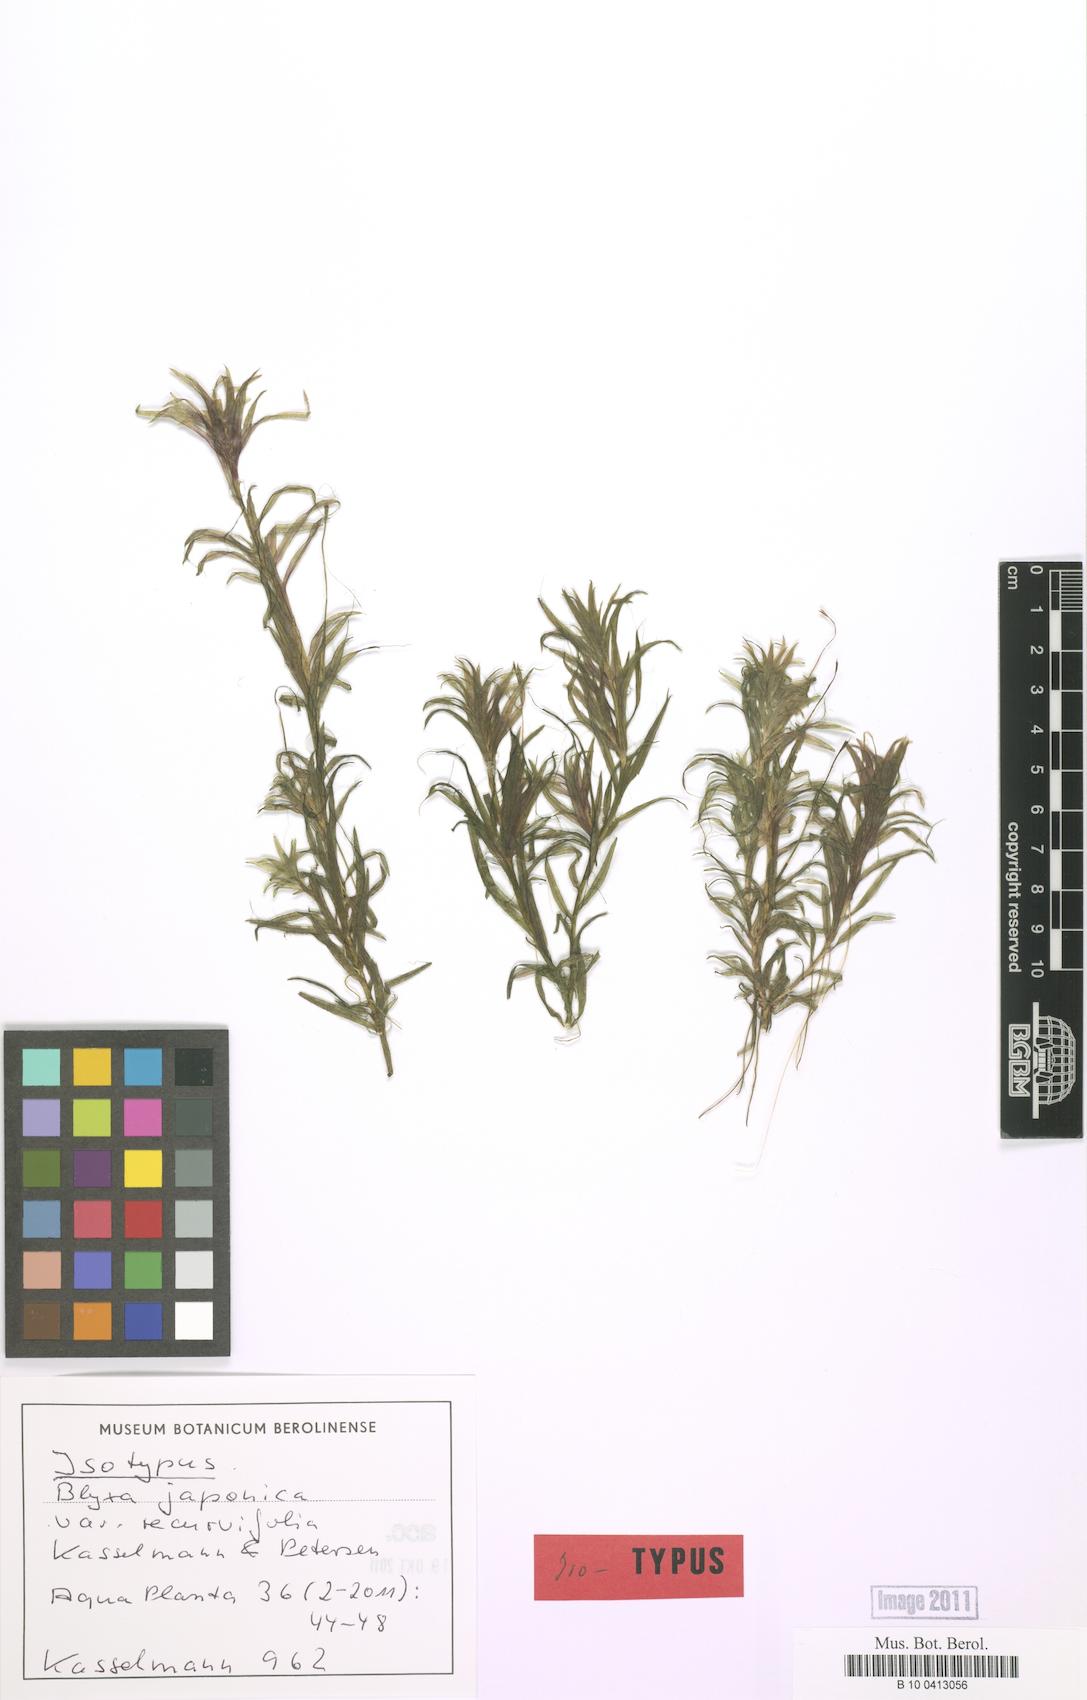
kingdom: Plantae
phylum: Tracheophyta
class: Liliopsida
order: Alismatales
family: Hydrocharitaceae
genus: Blyxa
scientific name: Blyxa japonica
